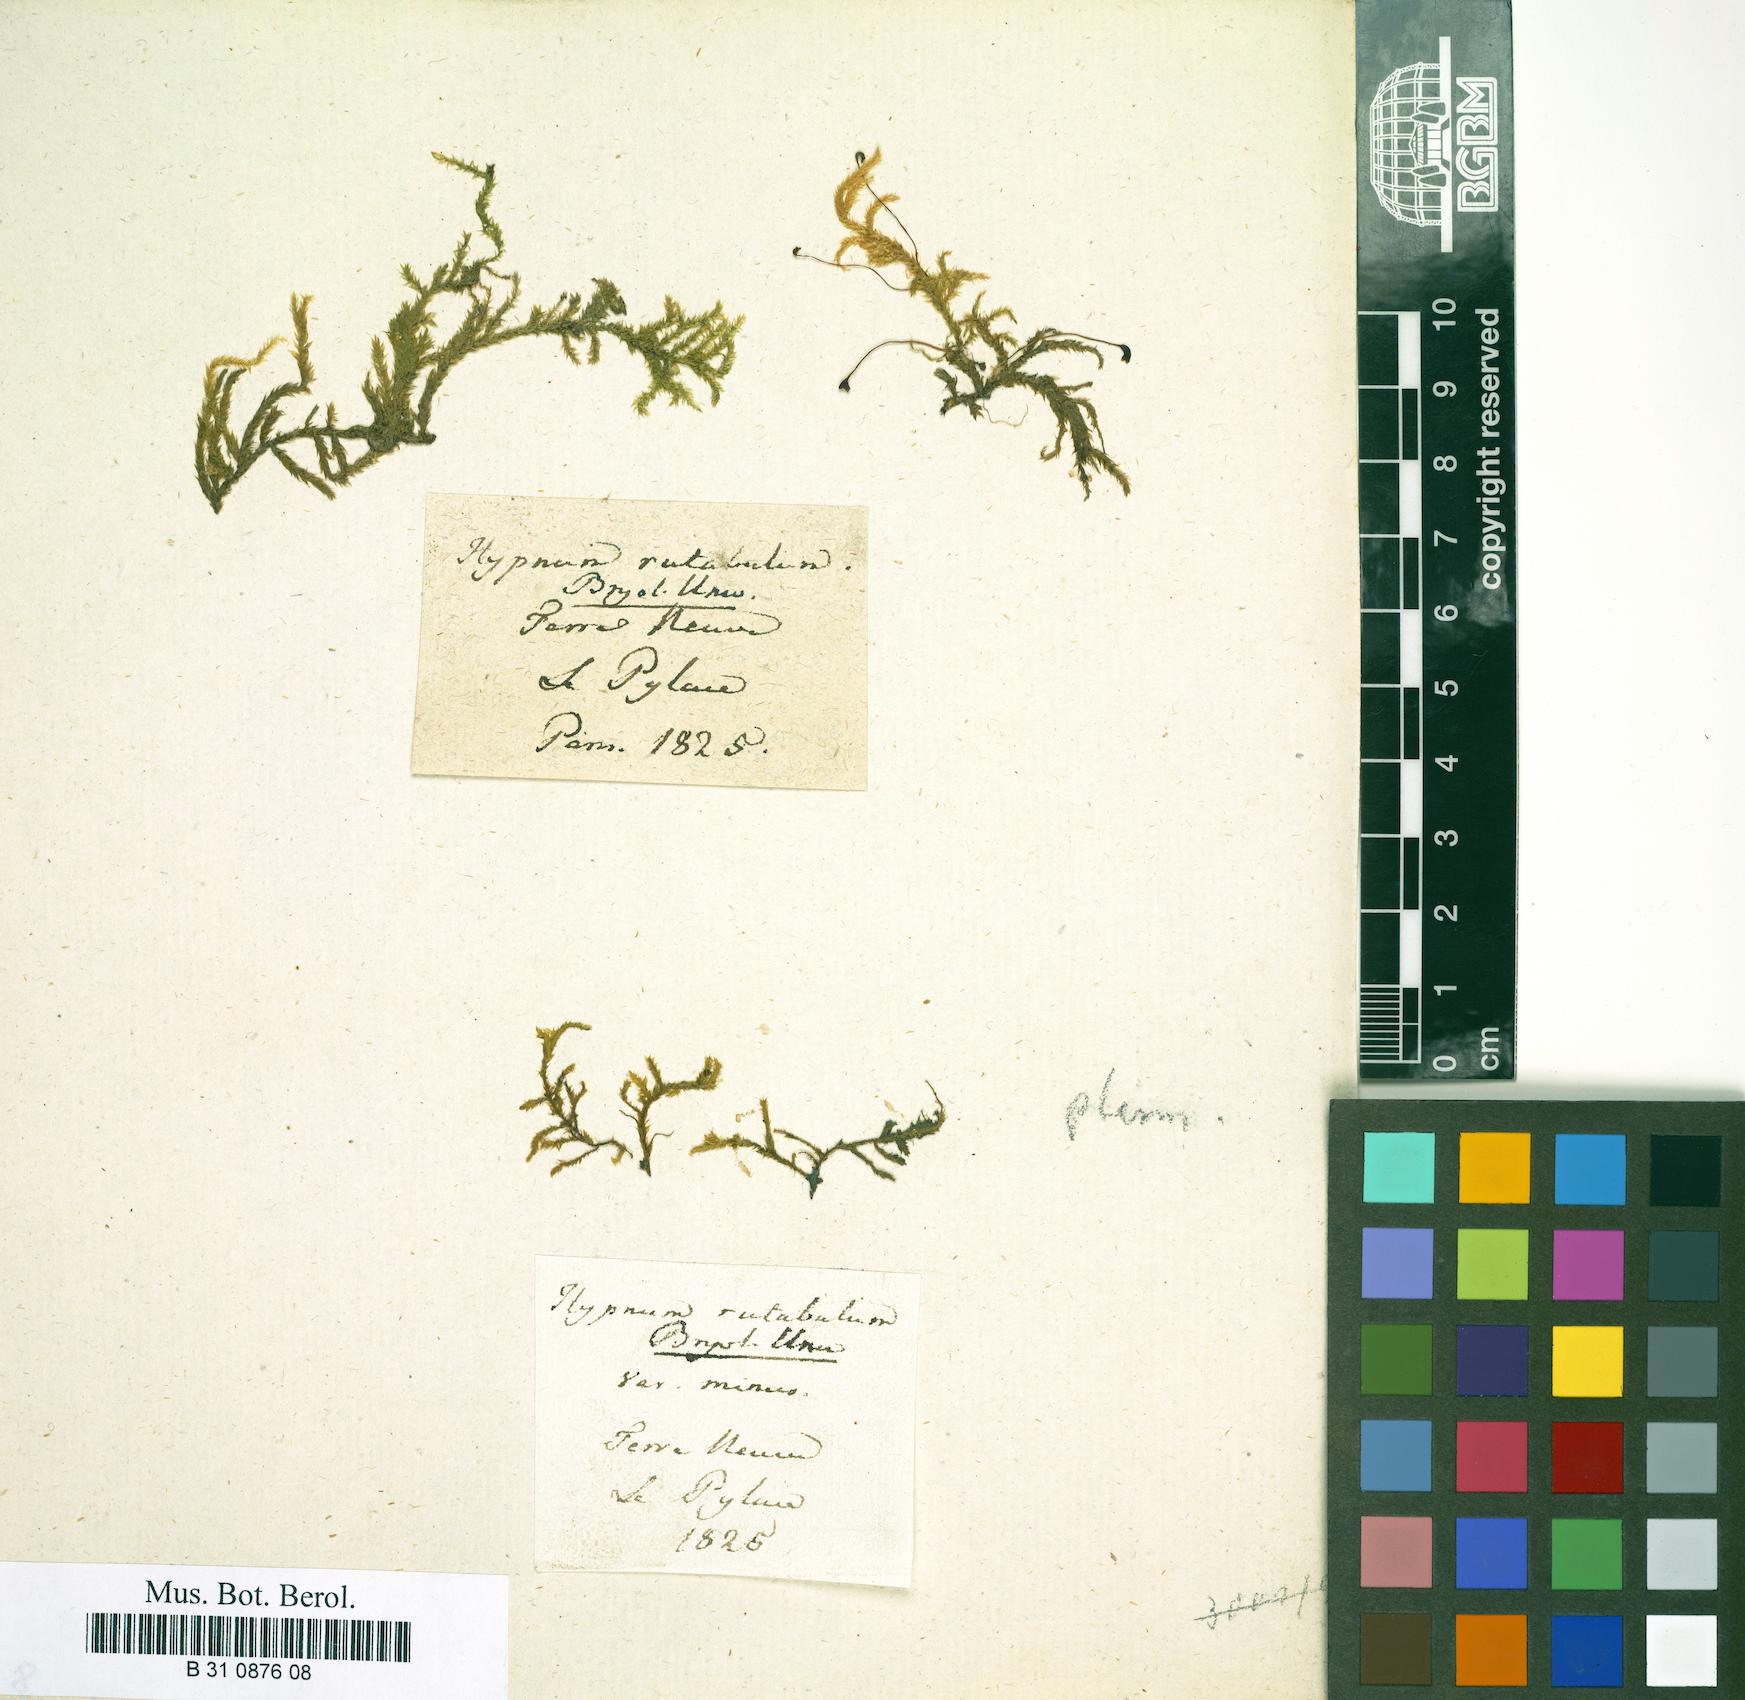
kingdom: Plantae
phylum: Bryophyta
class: Bryopsida
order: Hypnales
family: Brachytheciaceae
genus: Brachythecium
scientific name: Brachythecium rutabulum
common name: Rough-stalked feather-moss
